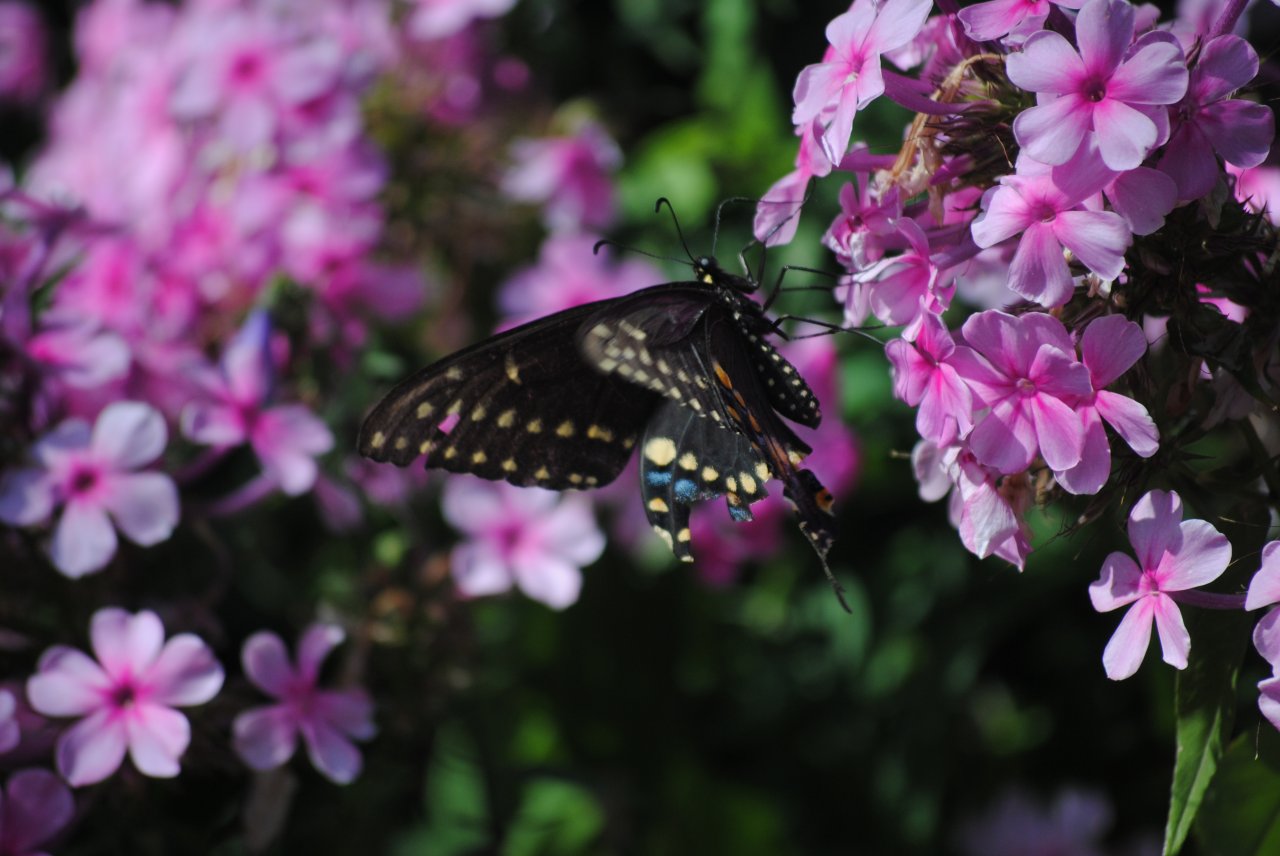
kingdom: Animalia
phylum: Arthropoda
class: Insecta
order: Lepidoptera
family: Papilionidae
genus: Papilio
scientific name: Papilio polyxenes
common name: Black Swallowtail
